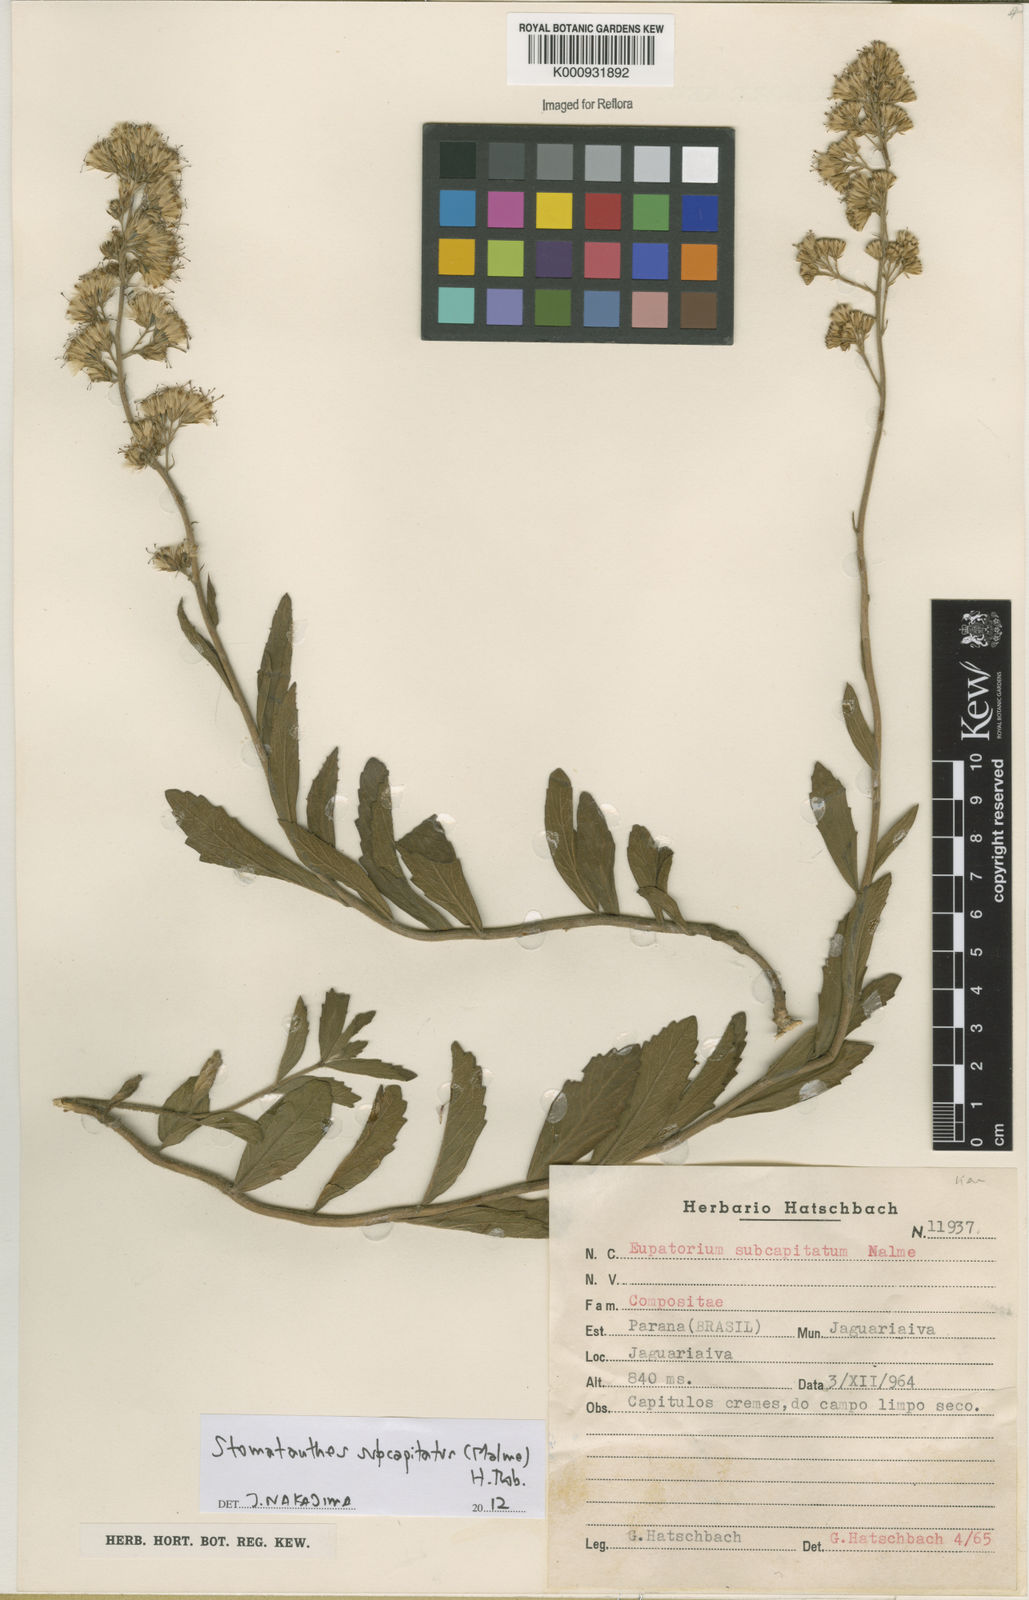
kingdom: Plantae
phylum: Tracheophyta
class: Magnoliopsida
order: Asterales
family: Asteraceae
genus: Stomatanthes
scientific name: Stomatanthes subcapitatus
